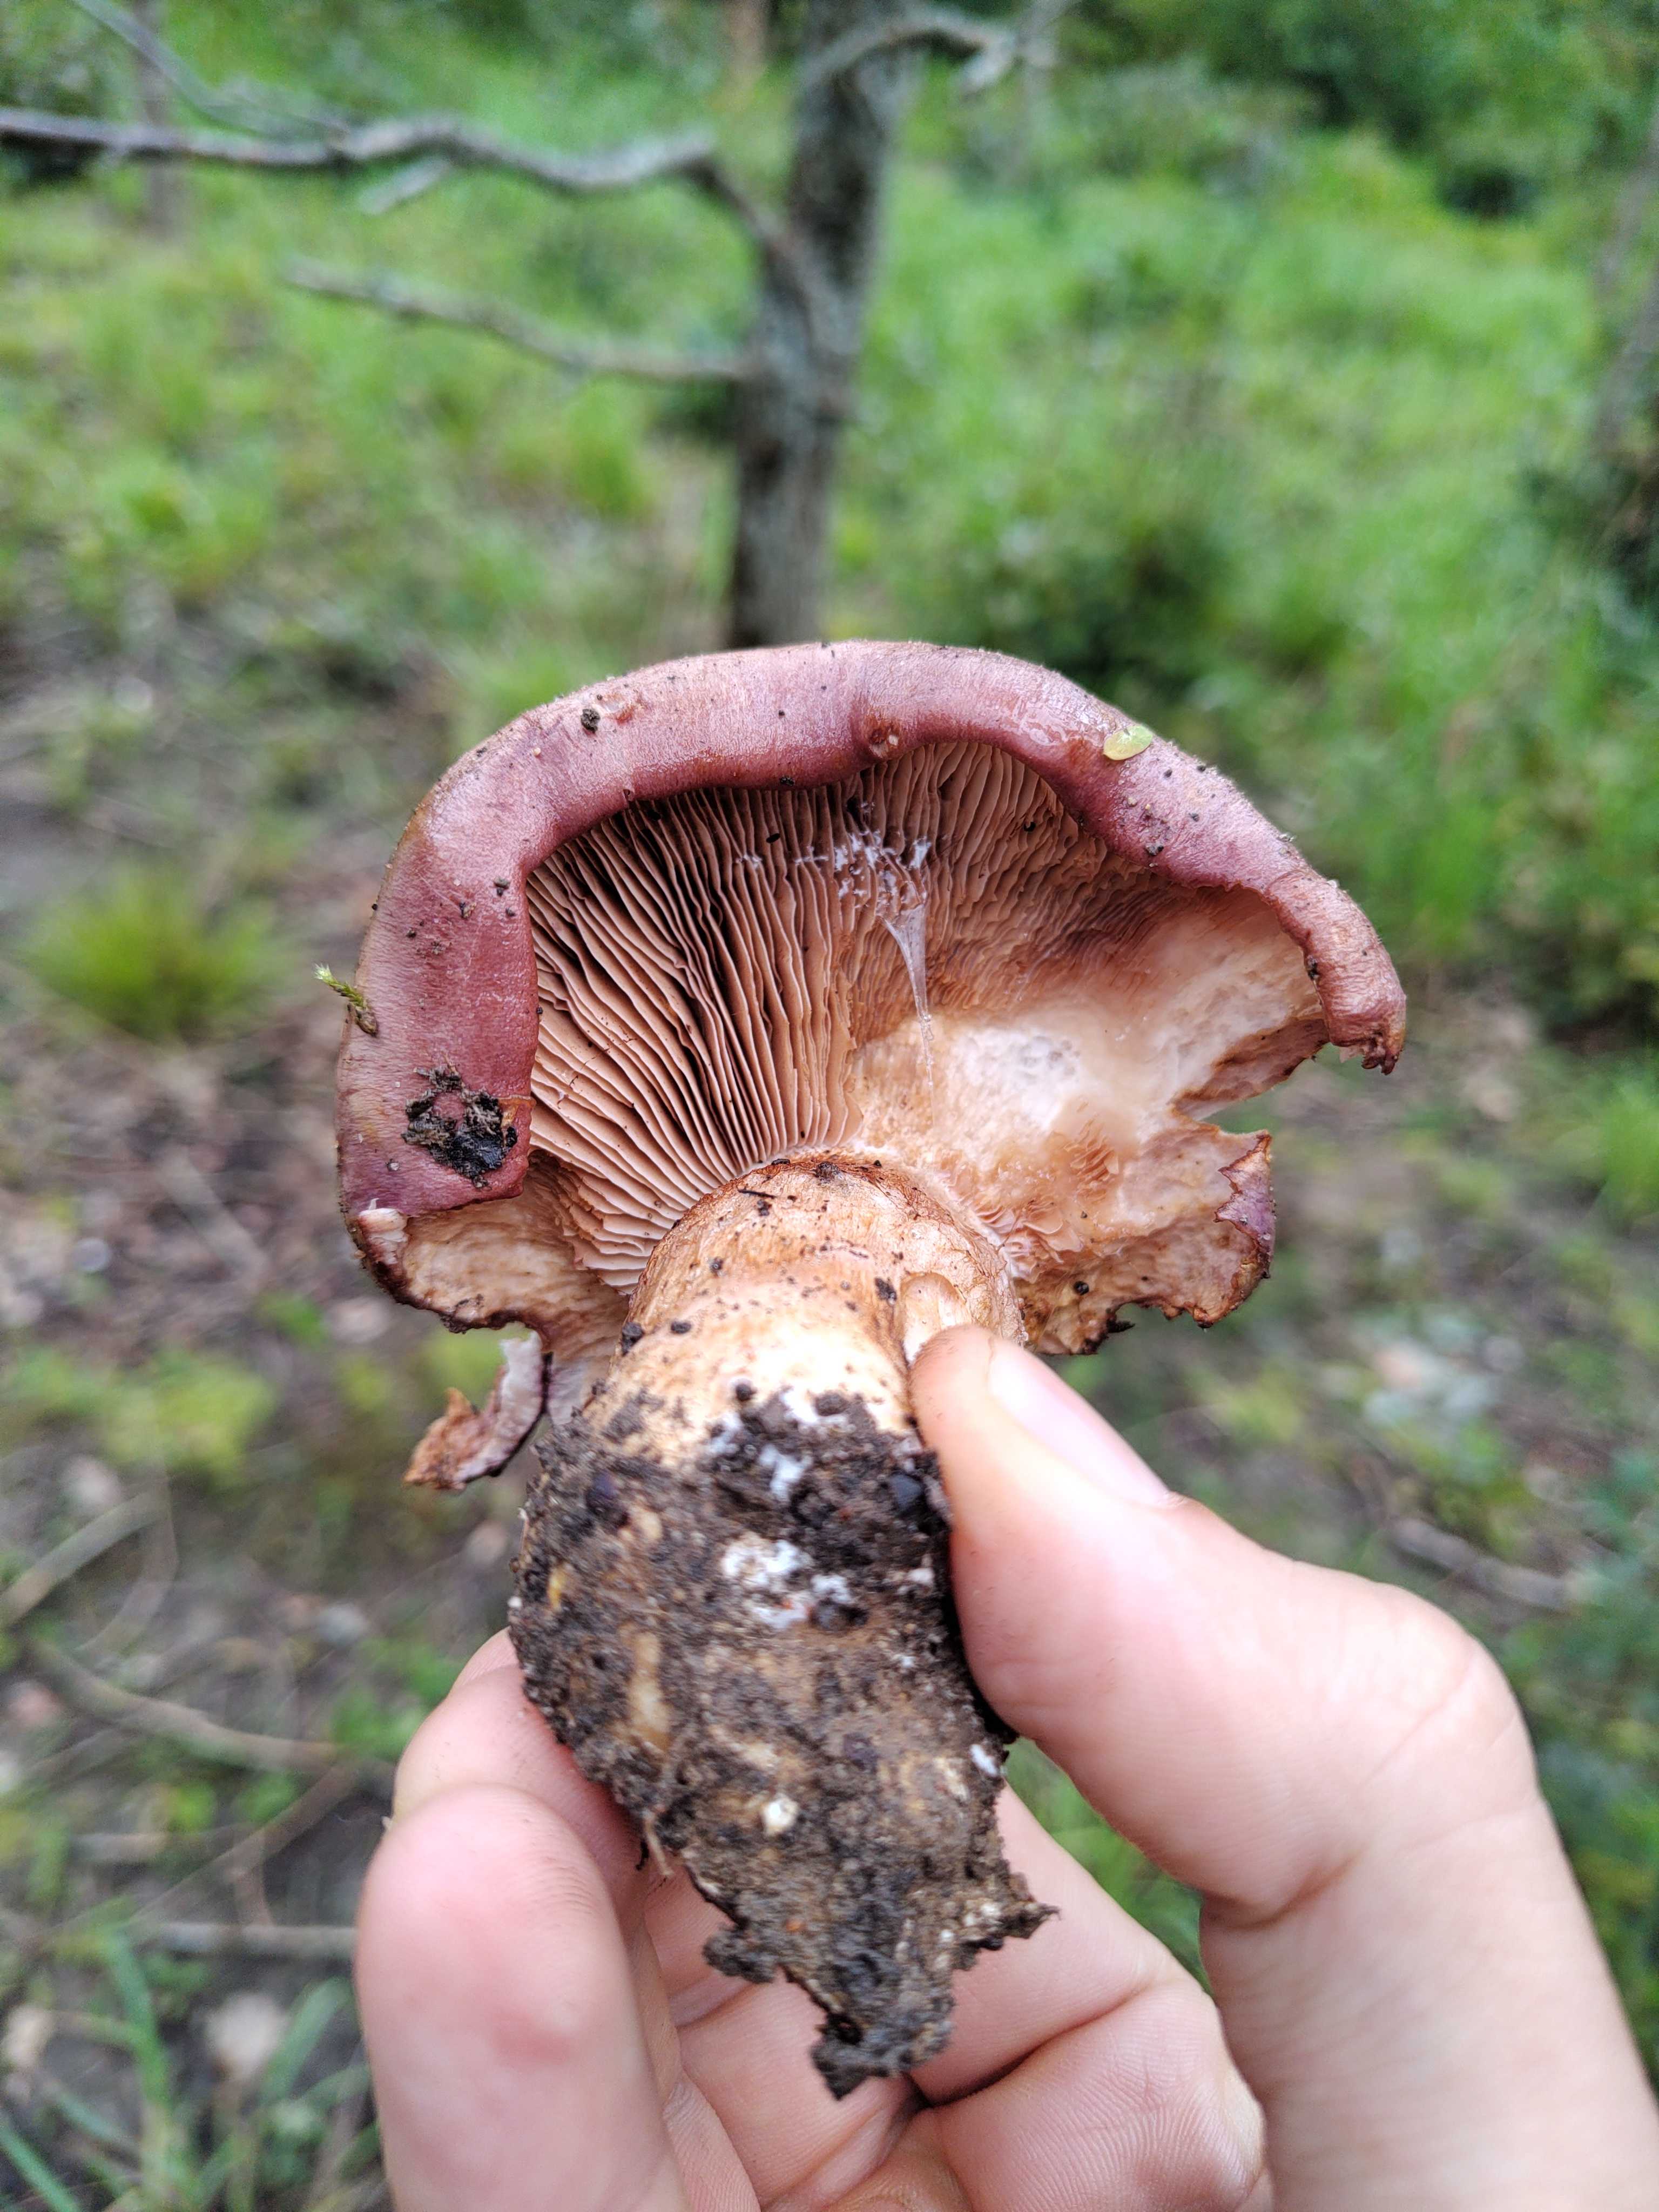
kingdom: Fungi
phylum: Basidiomycota
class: Agaricomycetes
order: Agaricales
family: Cortinariaceae
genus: Phlegmacium
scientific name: Phlegmacium balteatocumatile
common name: violettrådet slørhat
